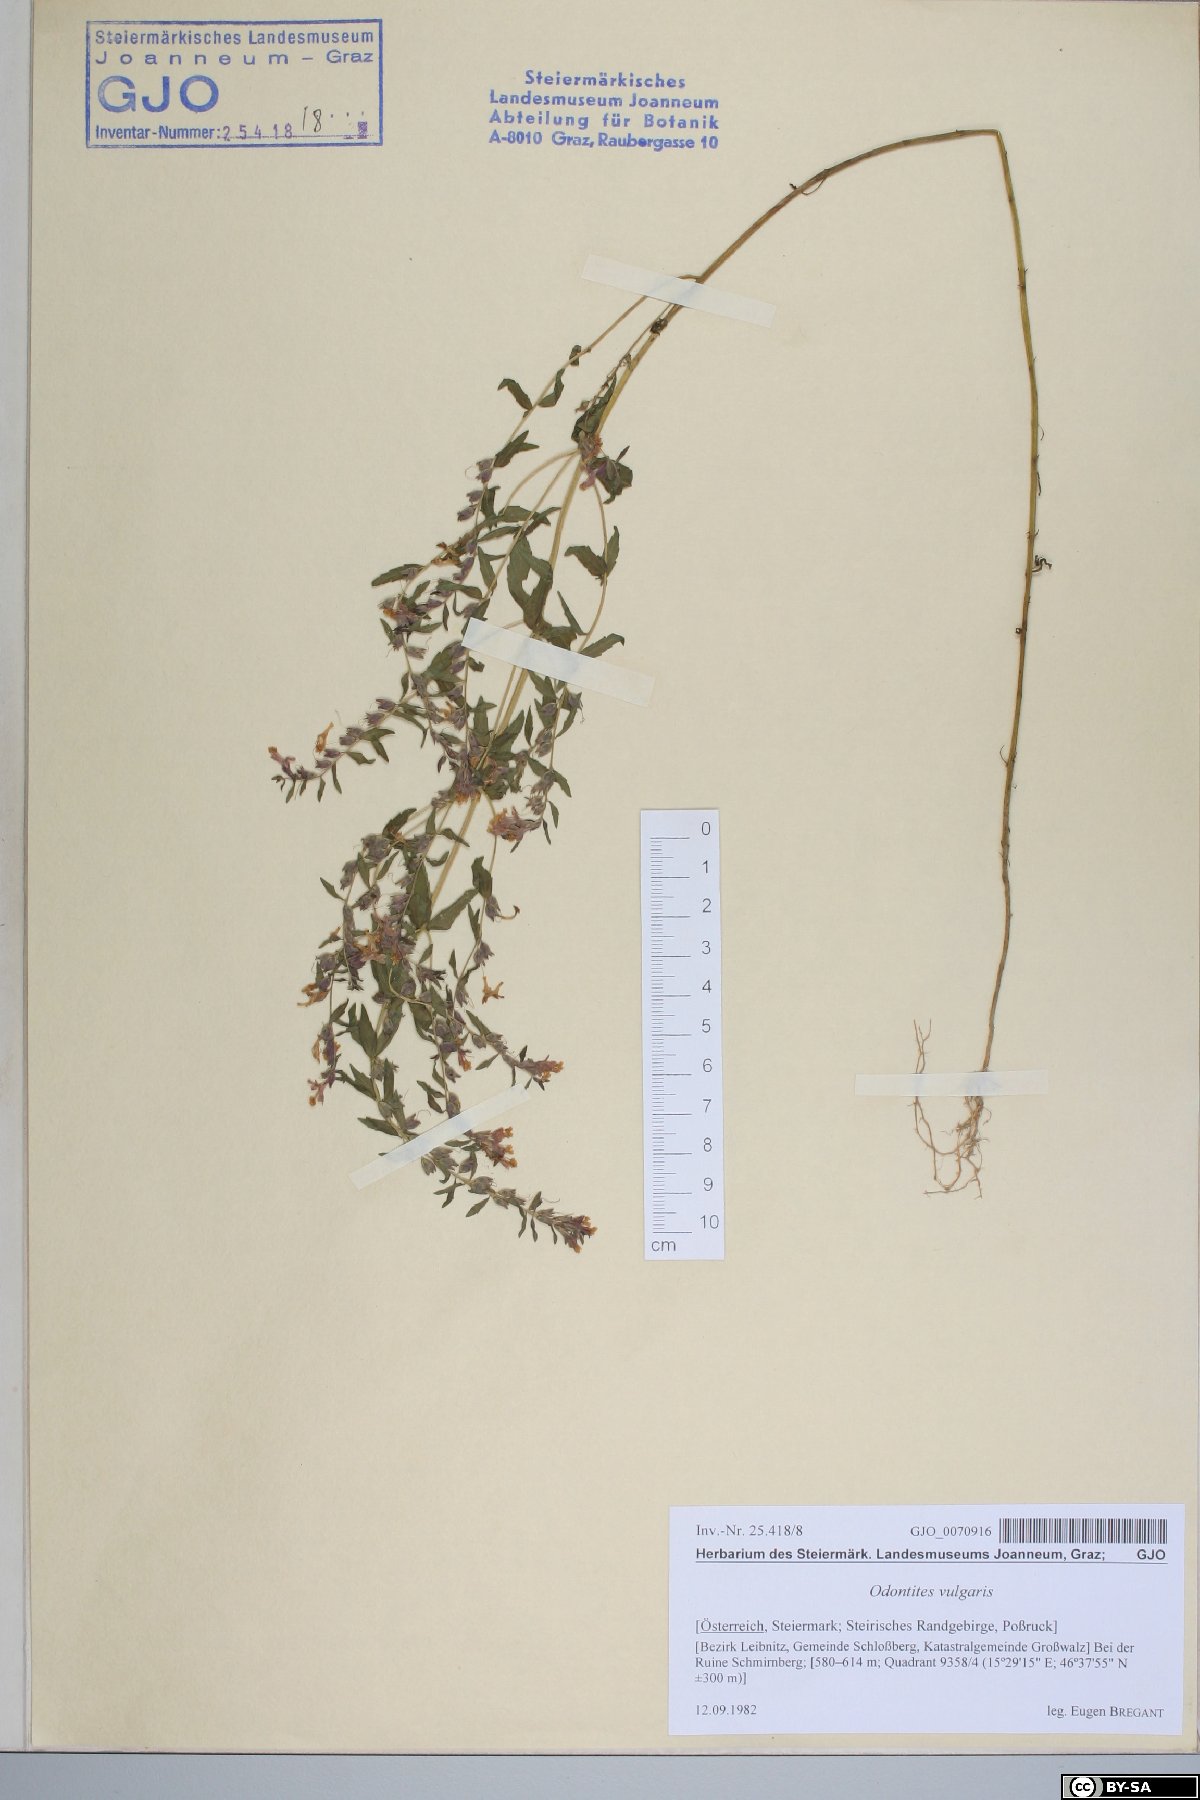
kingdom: Plantae
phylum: Tracheophyta
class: Magnoliopsida
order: Lamiales
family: Orobanchaceae
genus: Odontites
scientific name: Odontites vulgaris
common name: Broomrape
